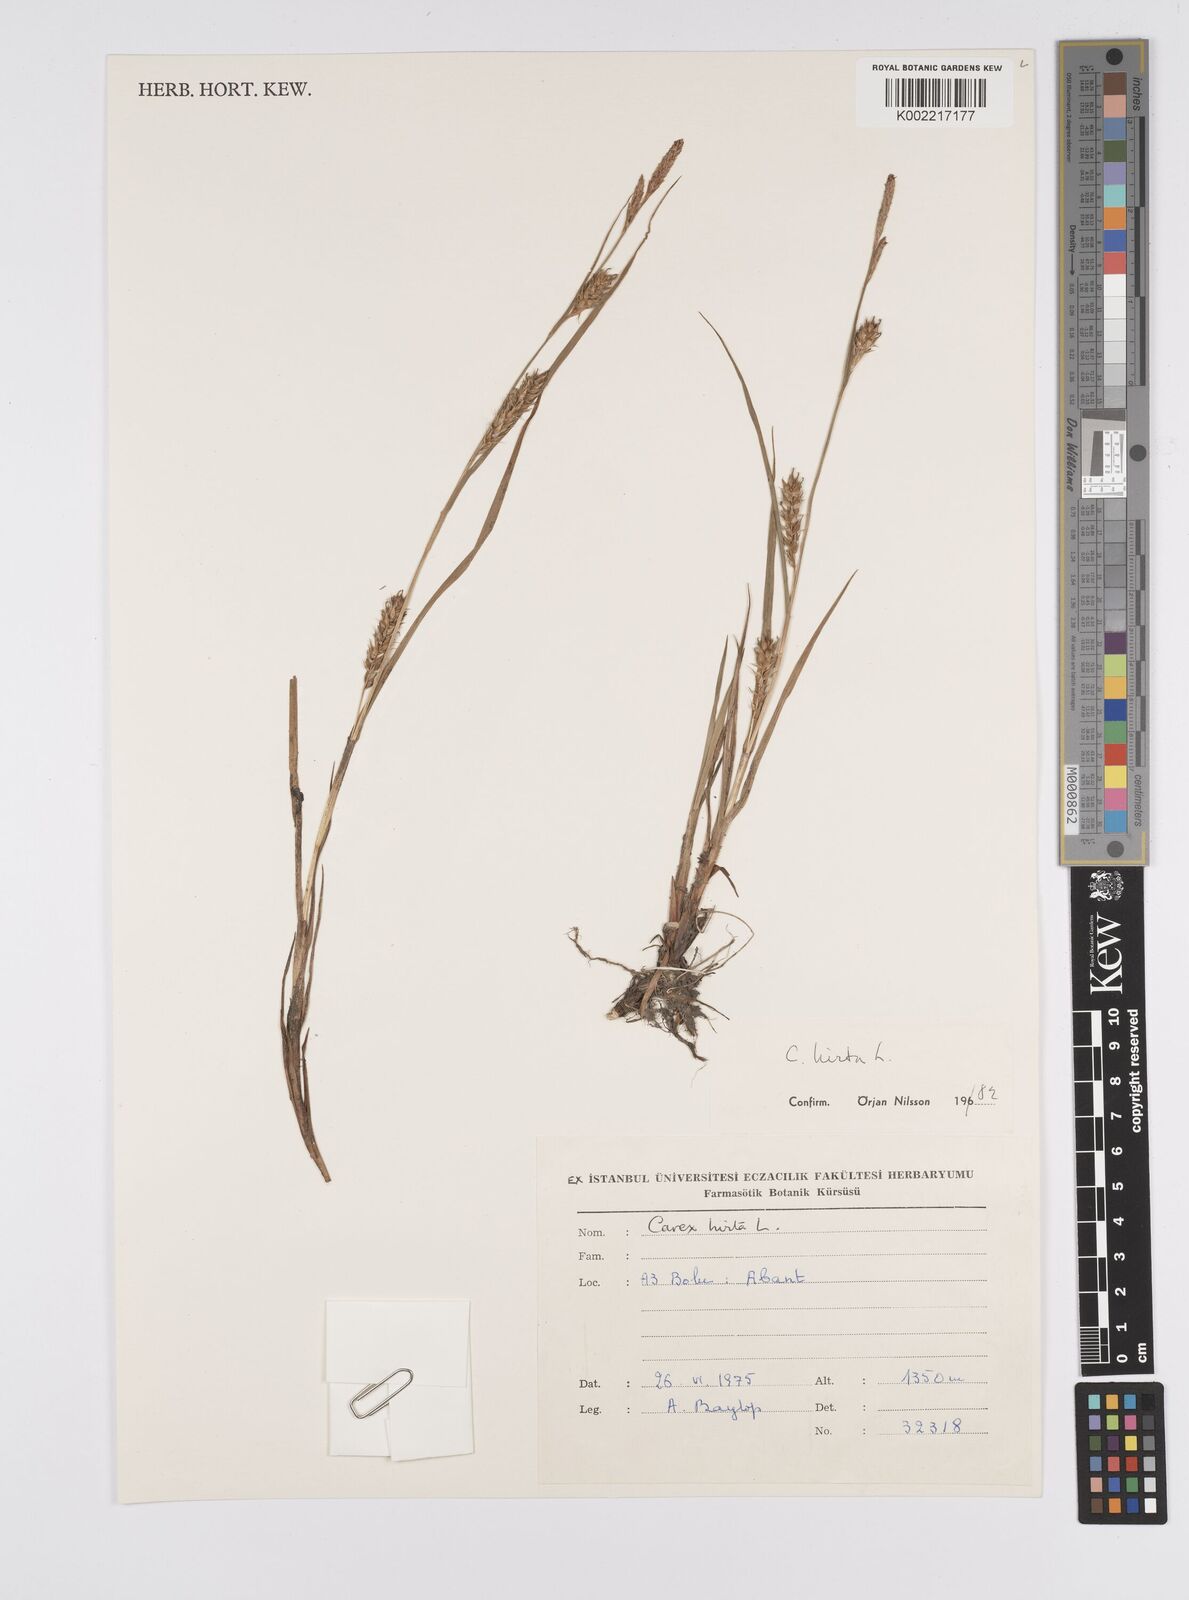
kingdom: Plantae
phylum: Tracheophyta
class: Liliopsida
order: Poales
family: Cyperaceae
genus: Carex
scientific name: Carex hirta
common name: Hairy sedge
